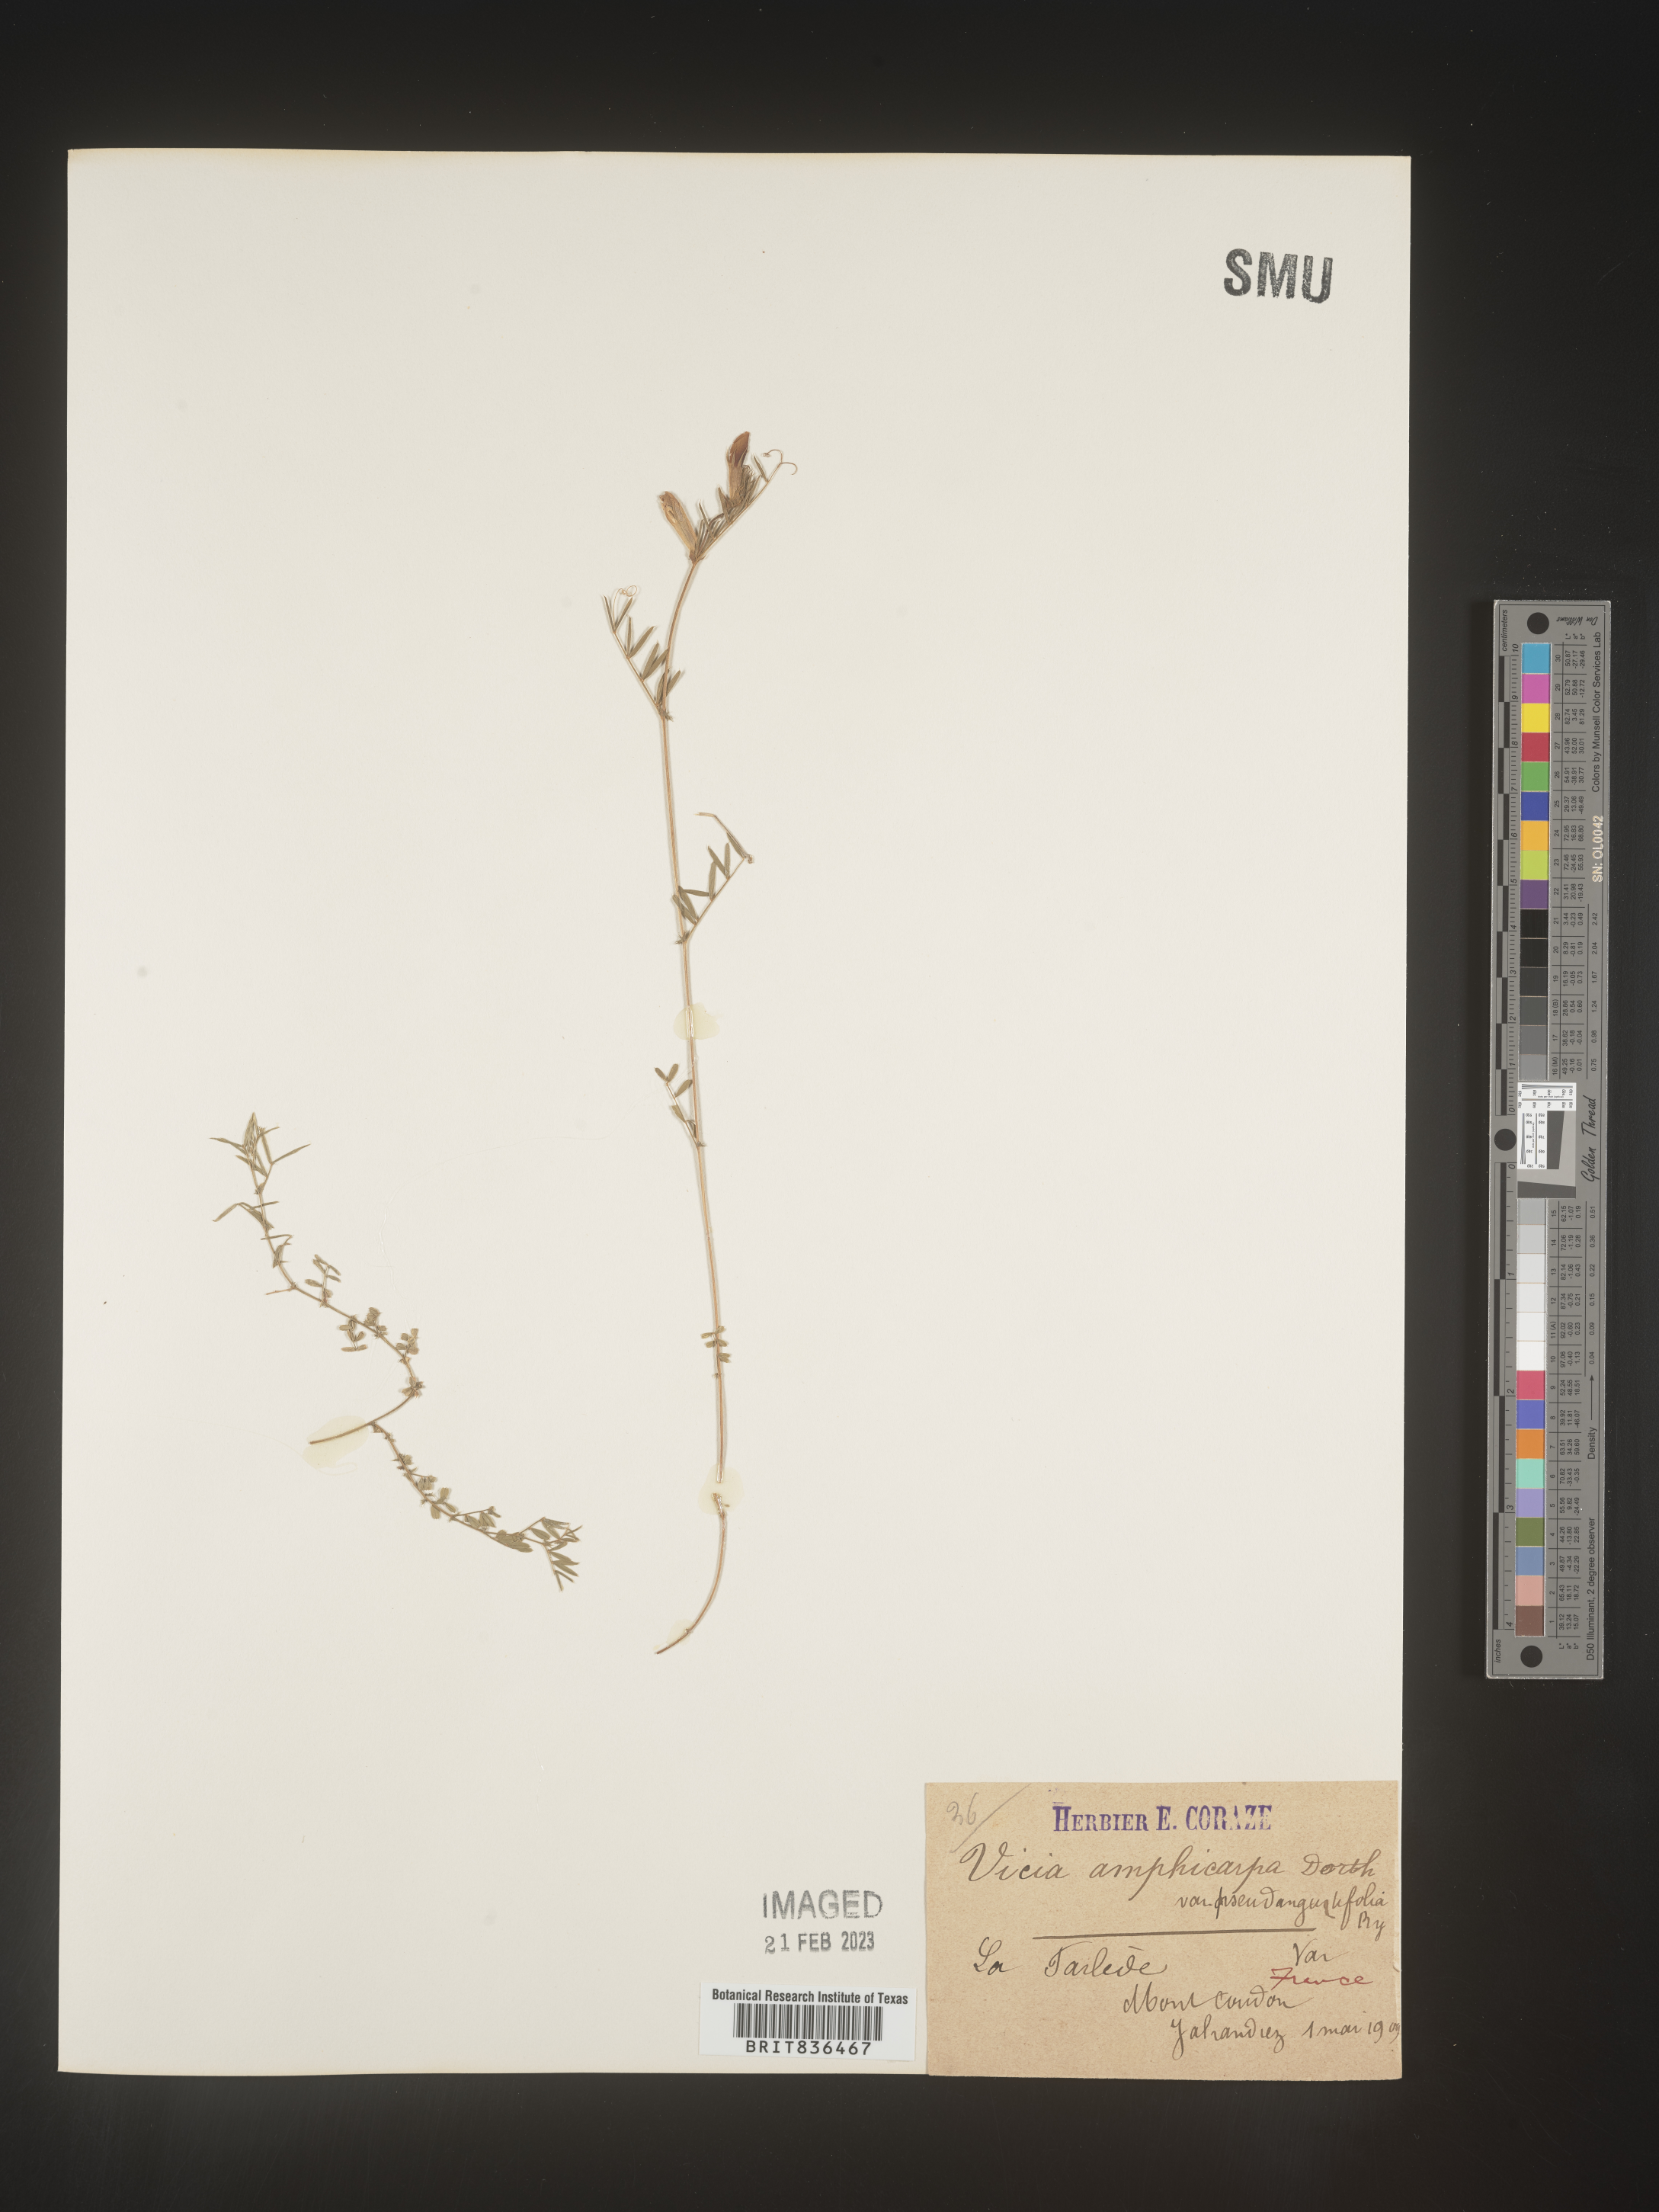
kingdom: Plantae
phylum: Tracheophyta
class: Magnoliopsida
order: Fabales
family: Fabaceae
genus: Vicia
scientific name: Vicia
